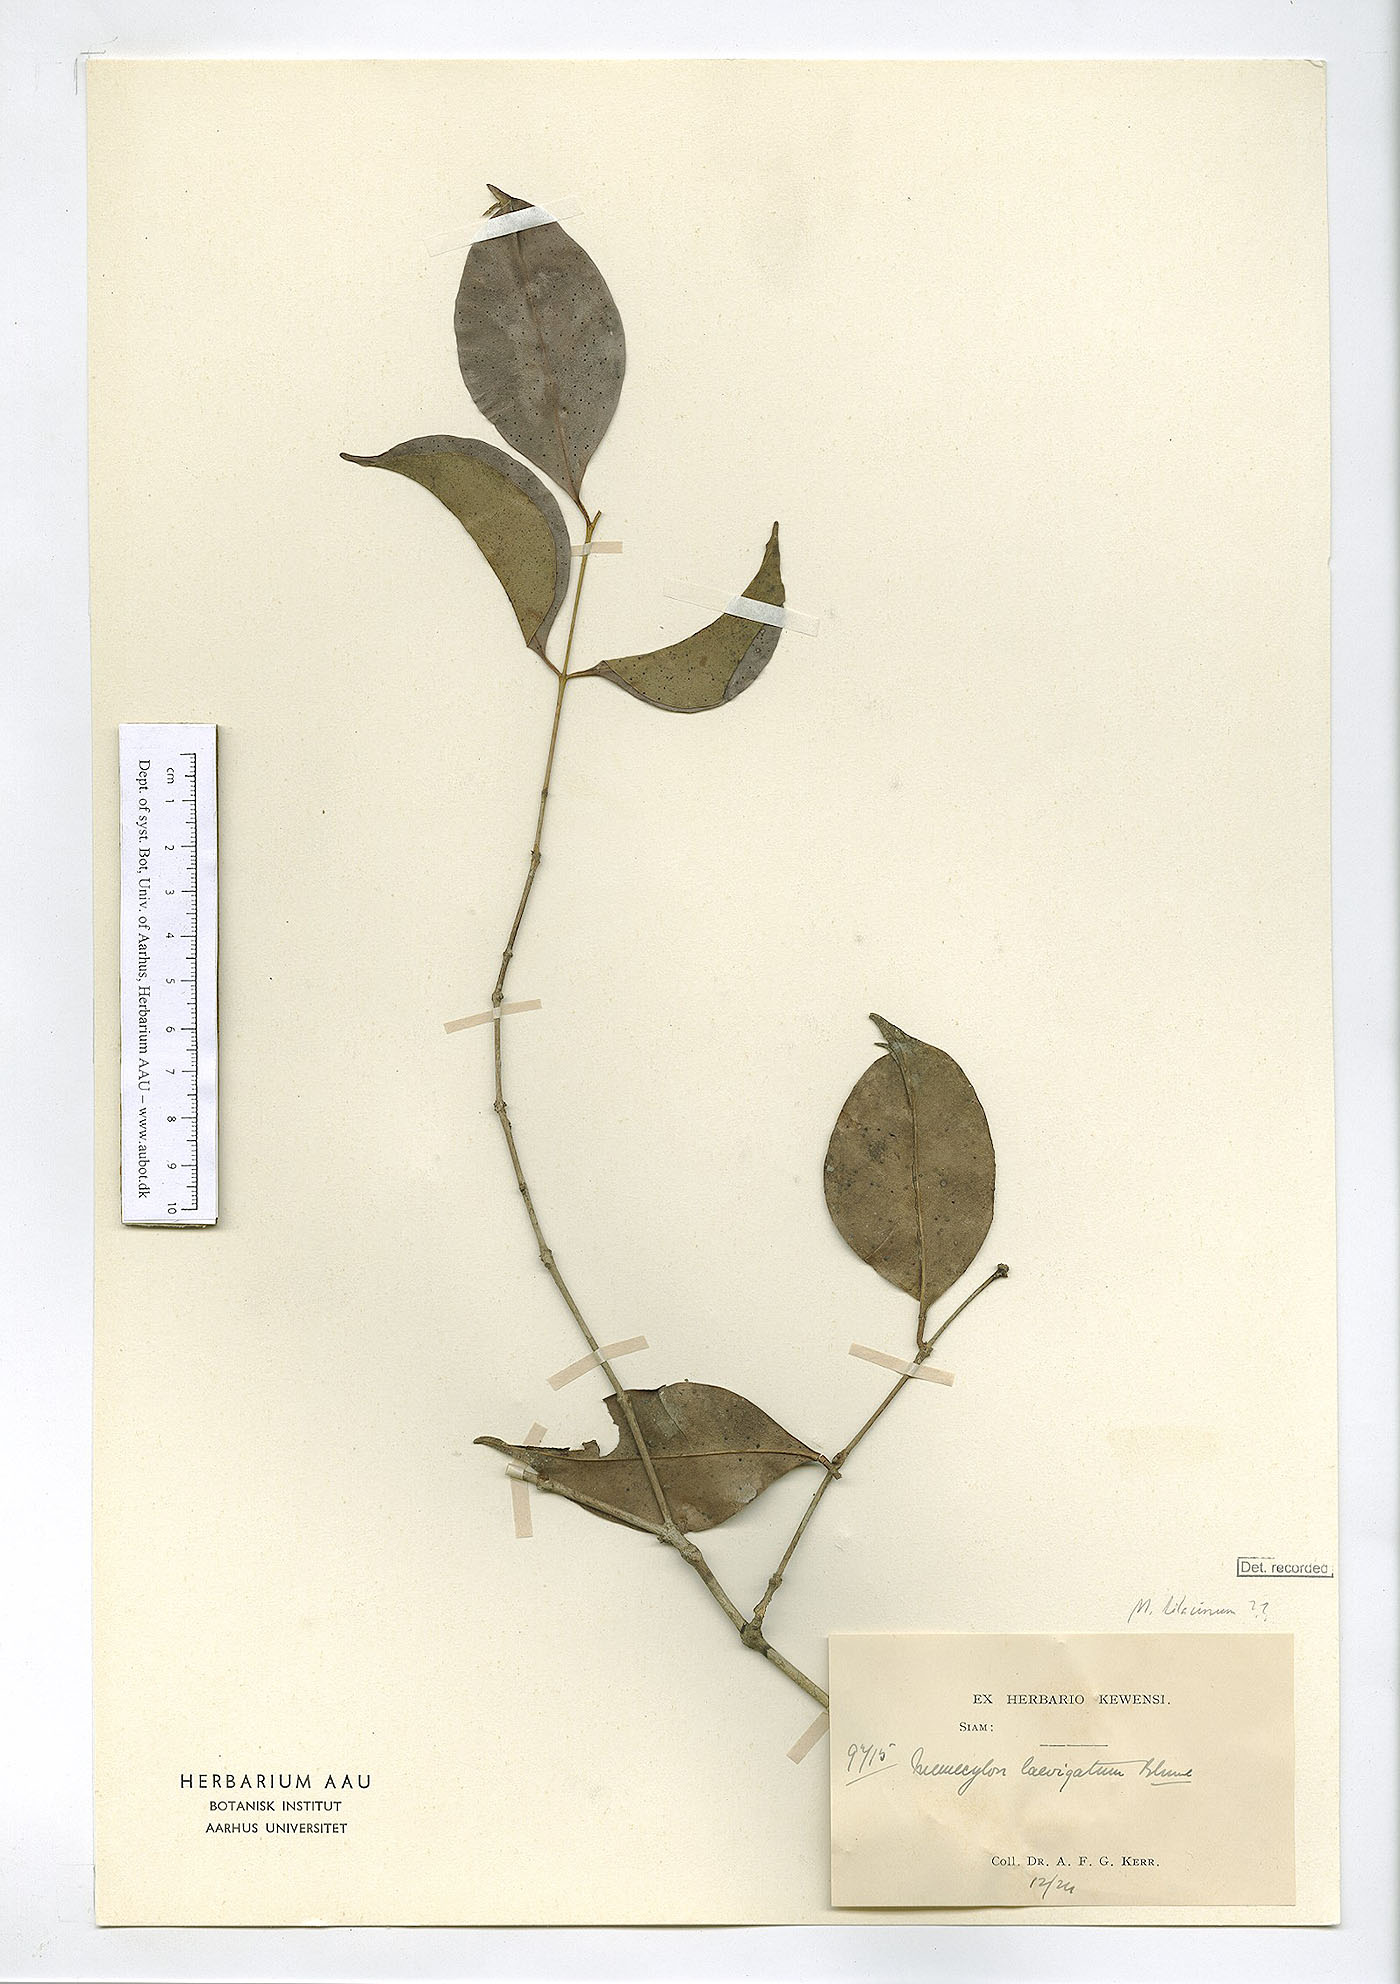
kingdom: Plantae
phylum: Tracheophyta
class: Magnoliopsida
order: Myrtales
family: Melastomataceae
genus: Memecylon
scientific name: Memecylon lilacinum
